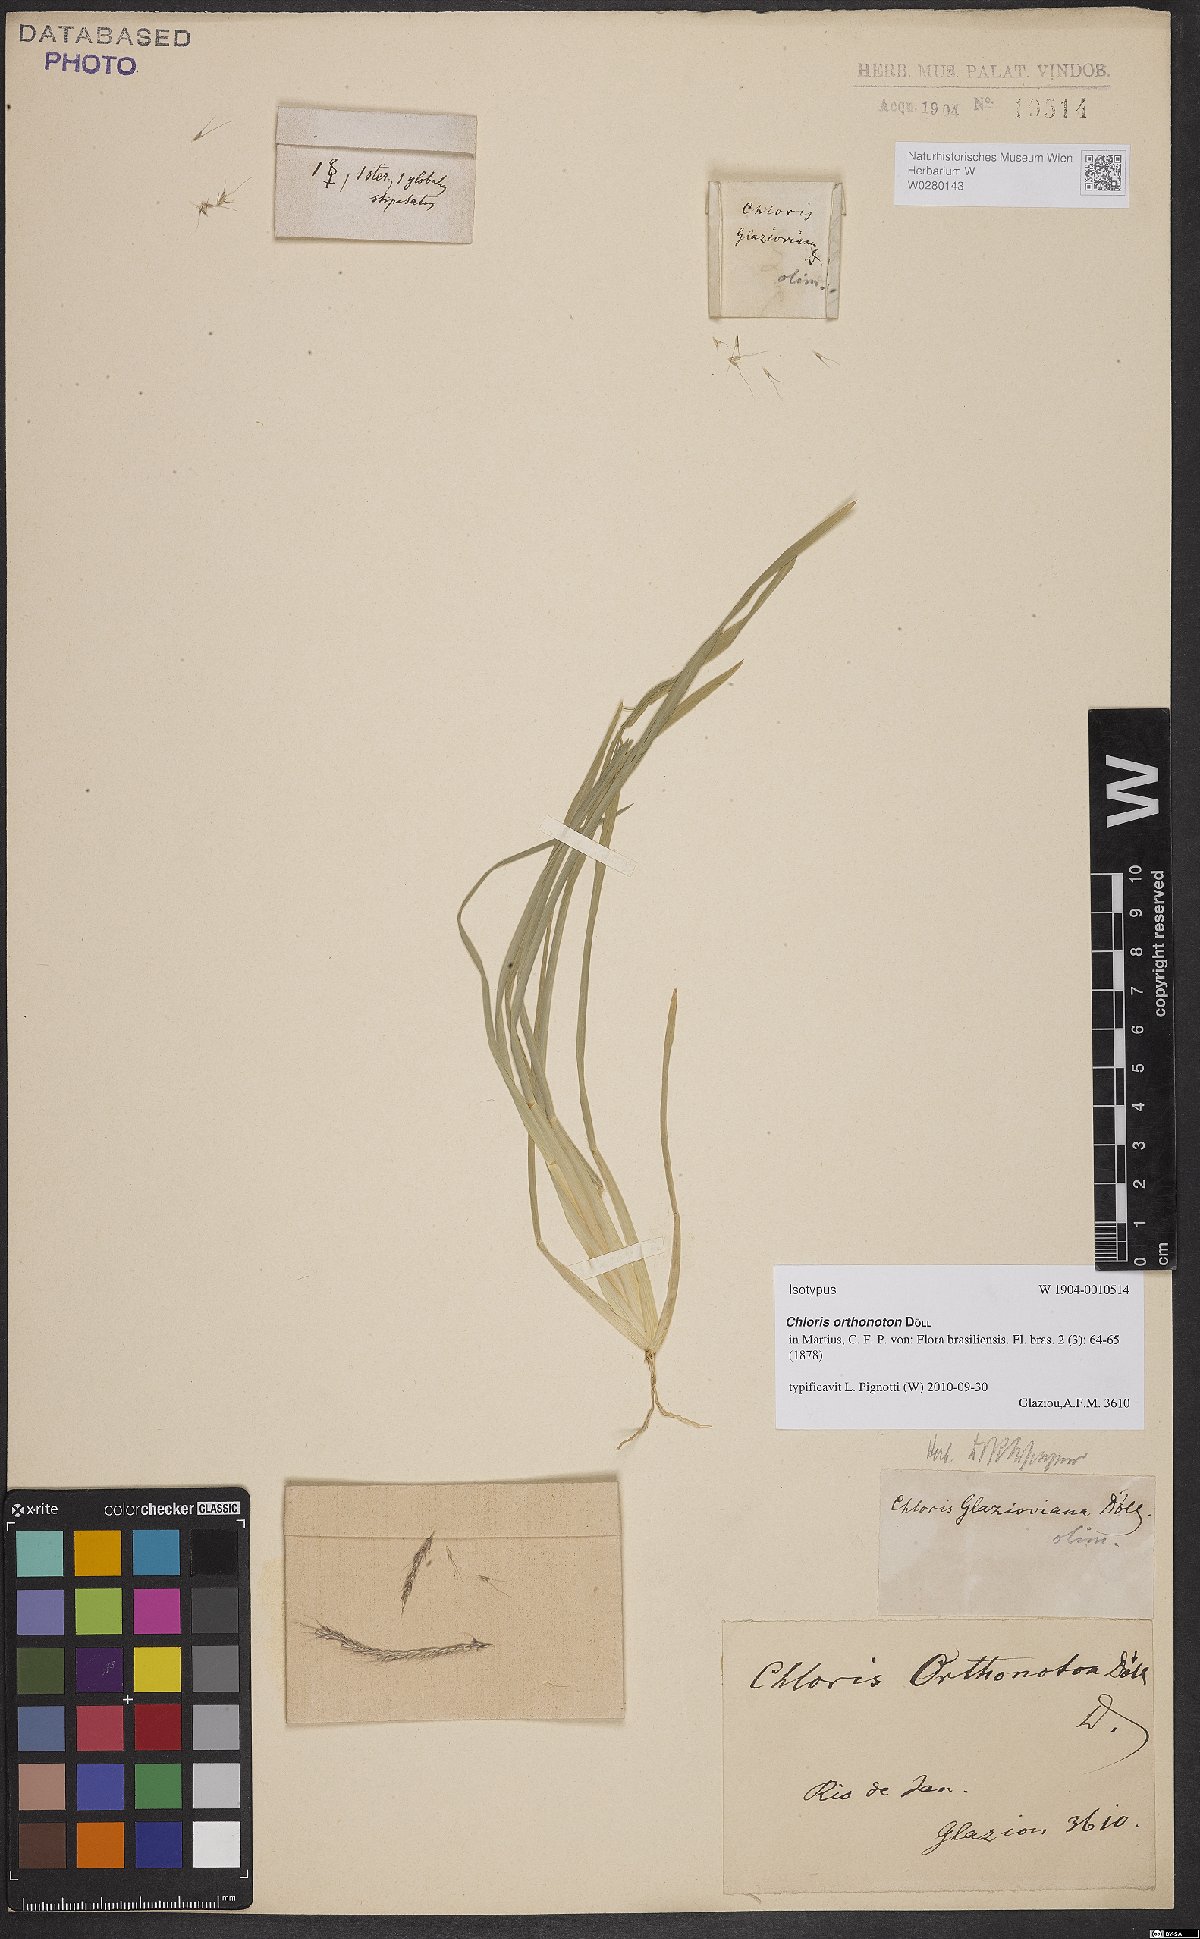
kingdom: Plantae
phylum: Tracheophyta
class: Liliopsida
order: Poales
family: Poaceae
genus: Chloris
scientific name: Chloris orthonoton
